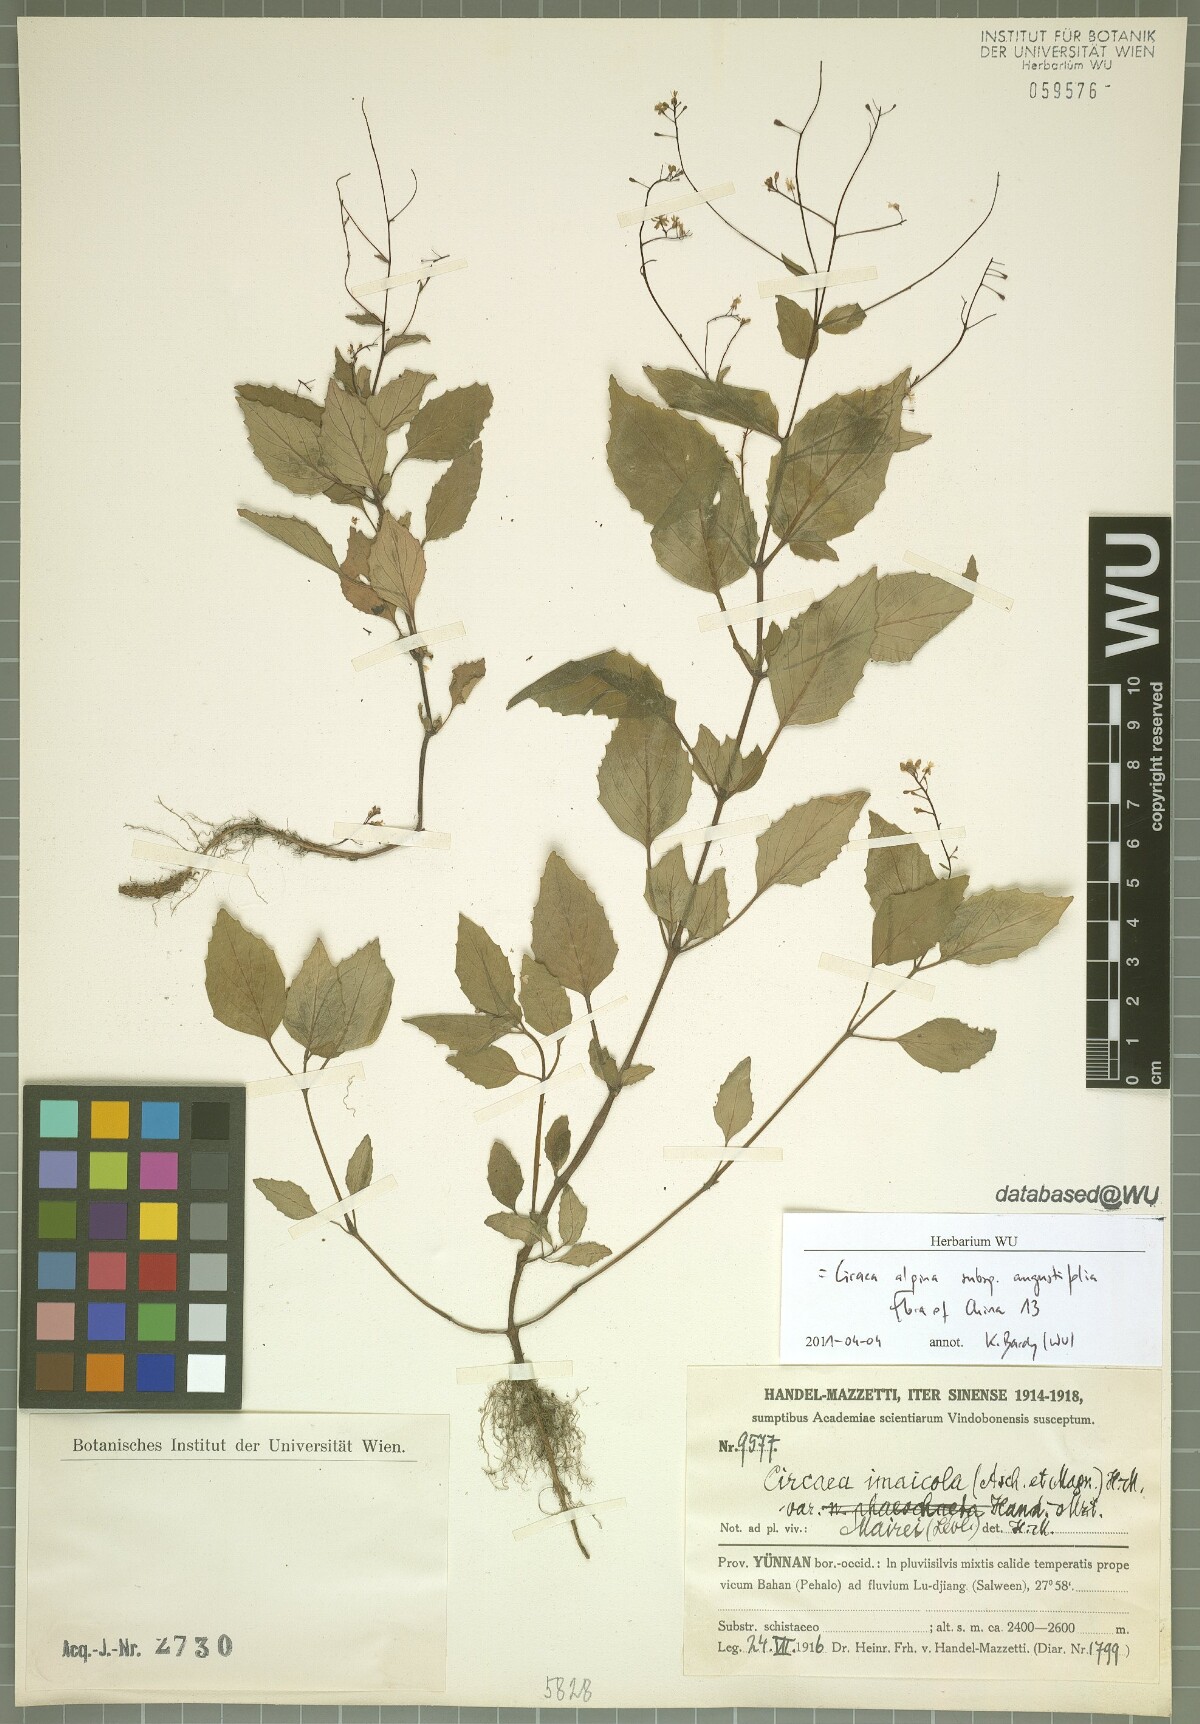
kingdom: Plantae
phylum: Tracheophyta
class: Magnoliopsida
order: Myrtales
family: Onagraceae
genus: Circaea
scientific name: Circaea alpina
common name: Alpine enchanter's-nightshade
